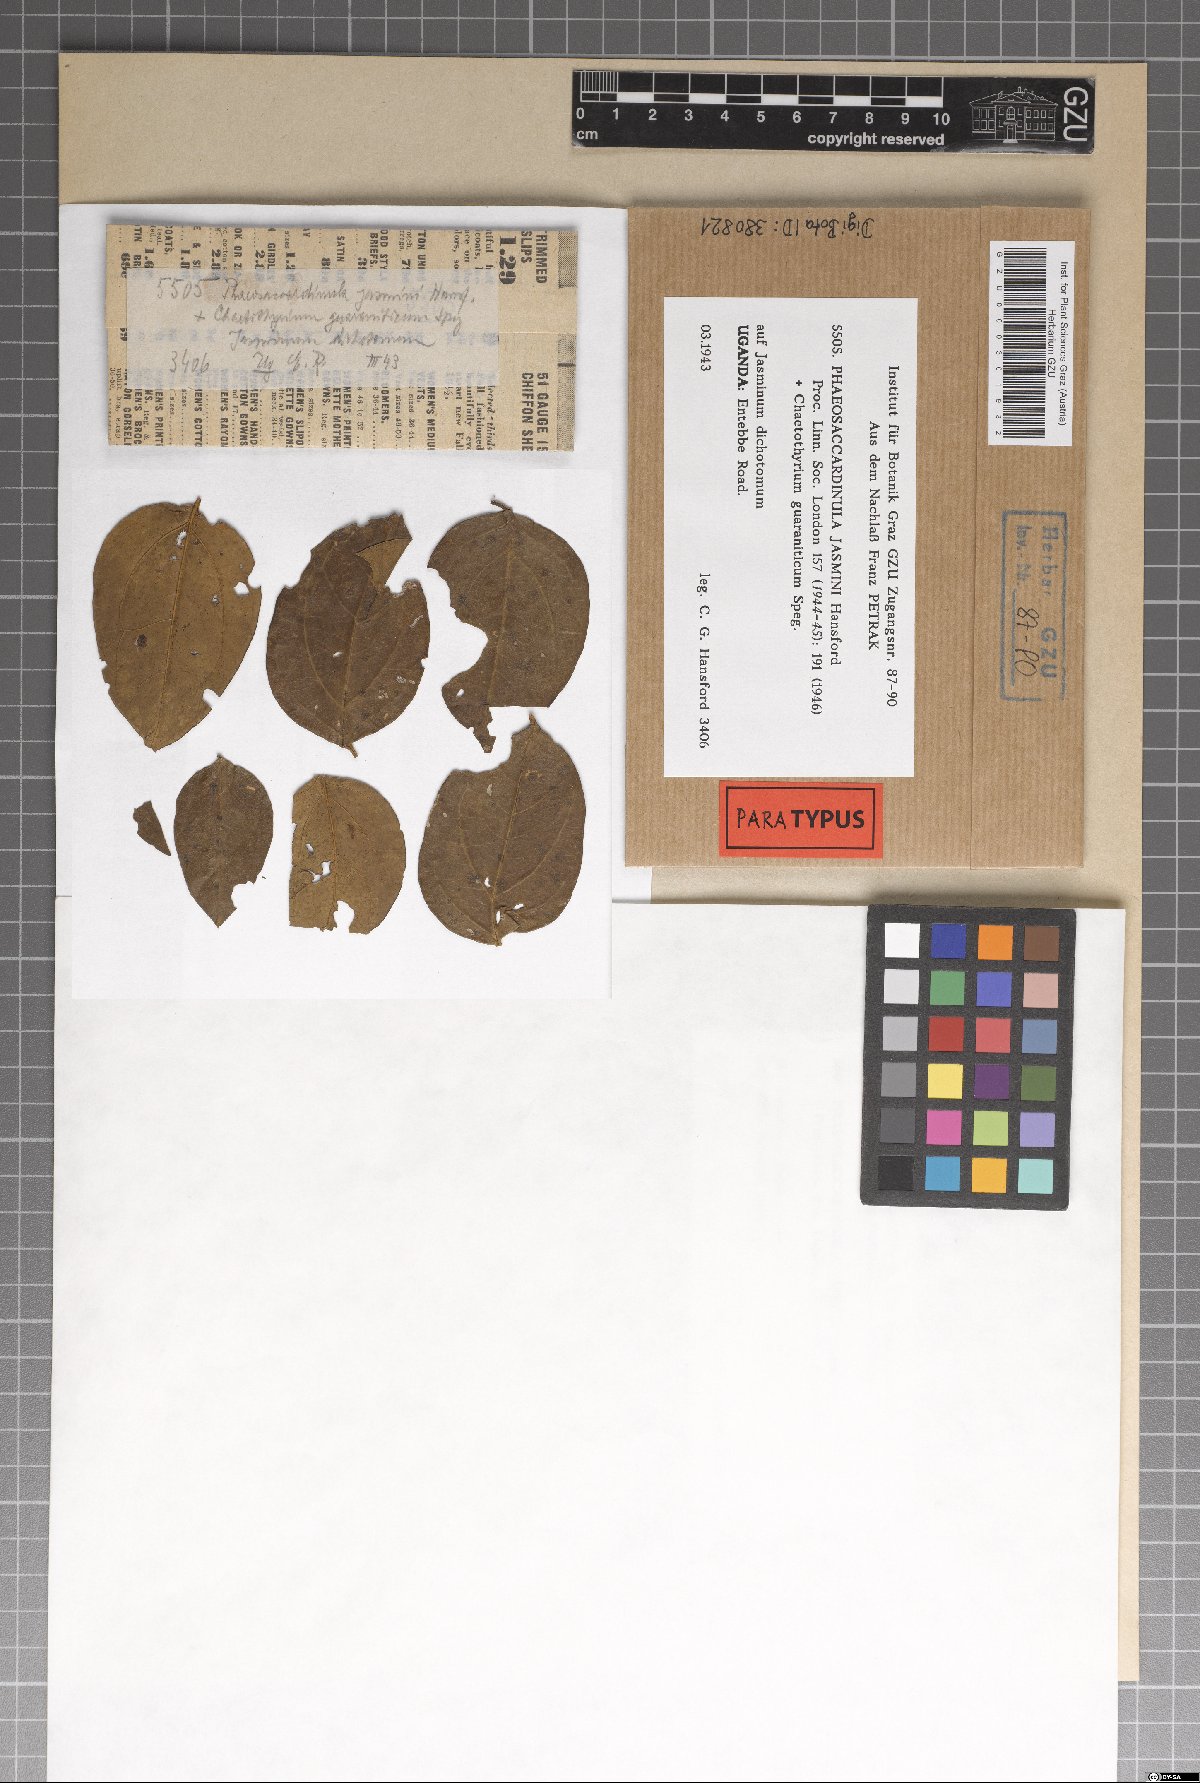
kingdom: Fungi
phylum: Ascomycota
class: Eurotiomycetes
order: Chaetothyriales
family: Chaetothyriaceae
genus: Phaeosaccardinula
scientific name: Phaeosaccardinula jasmini
